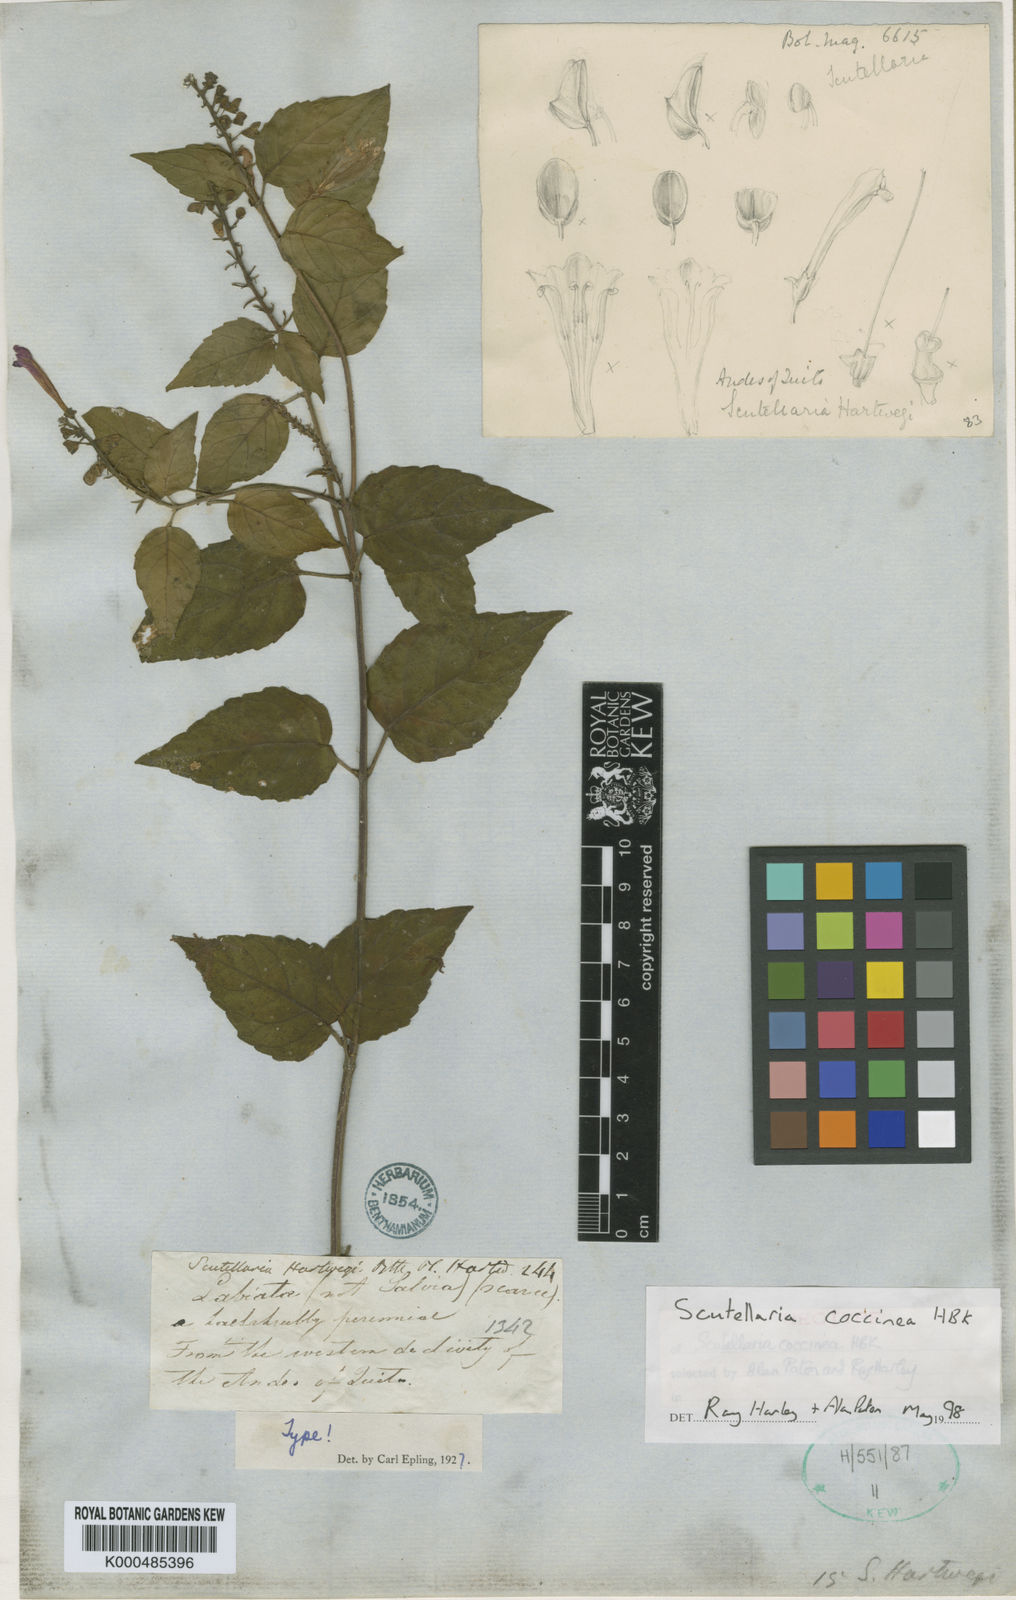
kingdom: Plantae
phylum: Tracheophyta
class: Magnoliopsida
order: Lamiales
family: Lamiaceae
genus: Scutellaria
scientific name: Scutellaria coccinea
